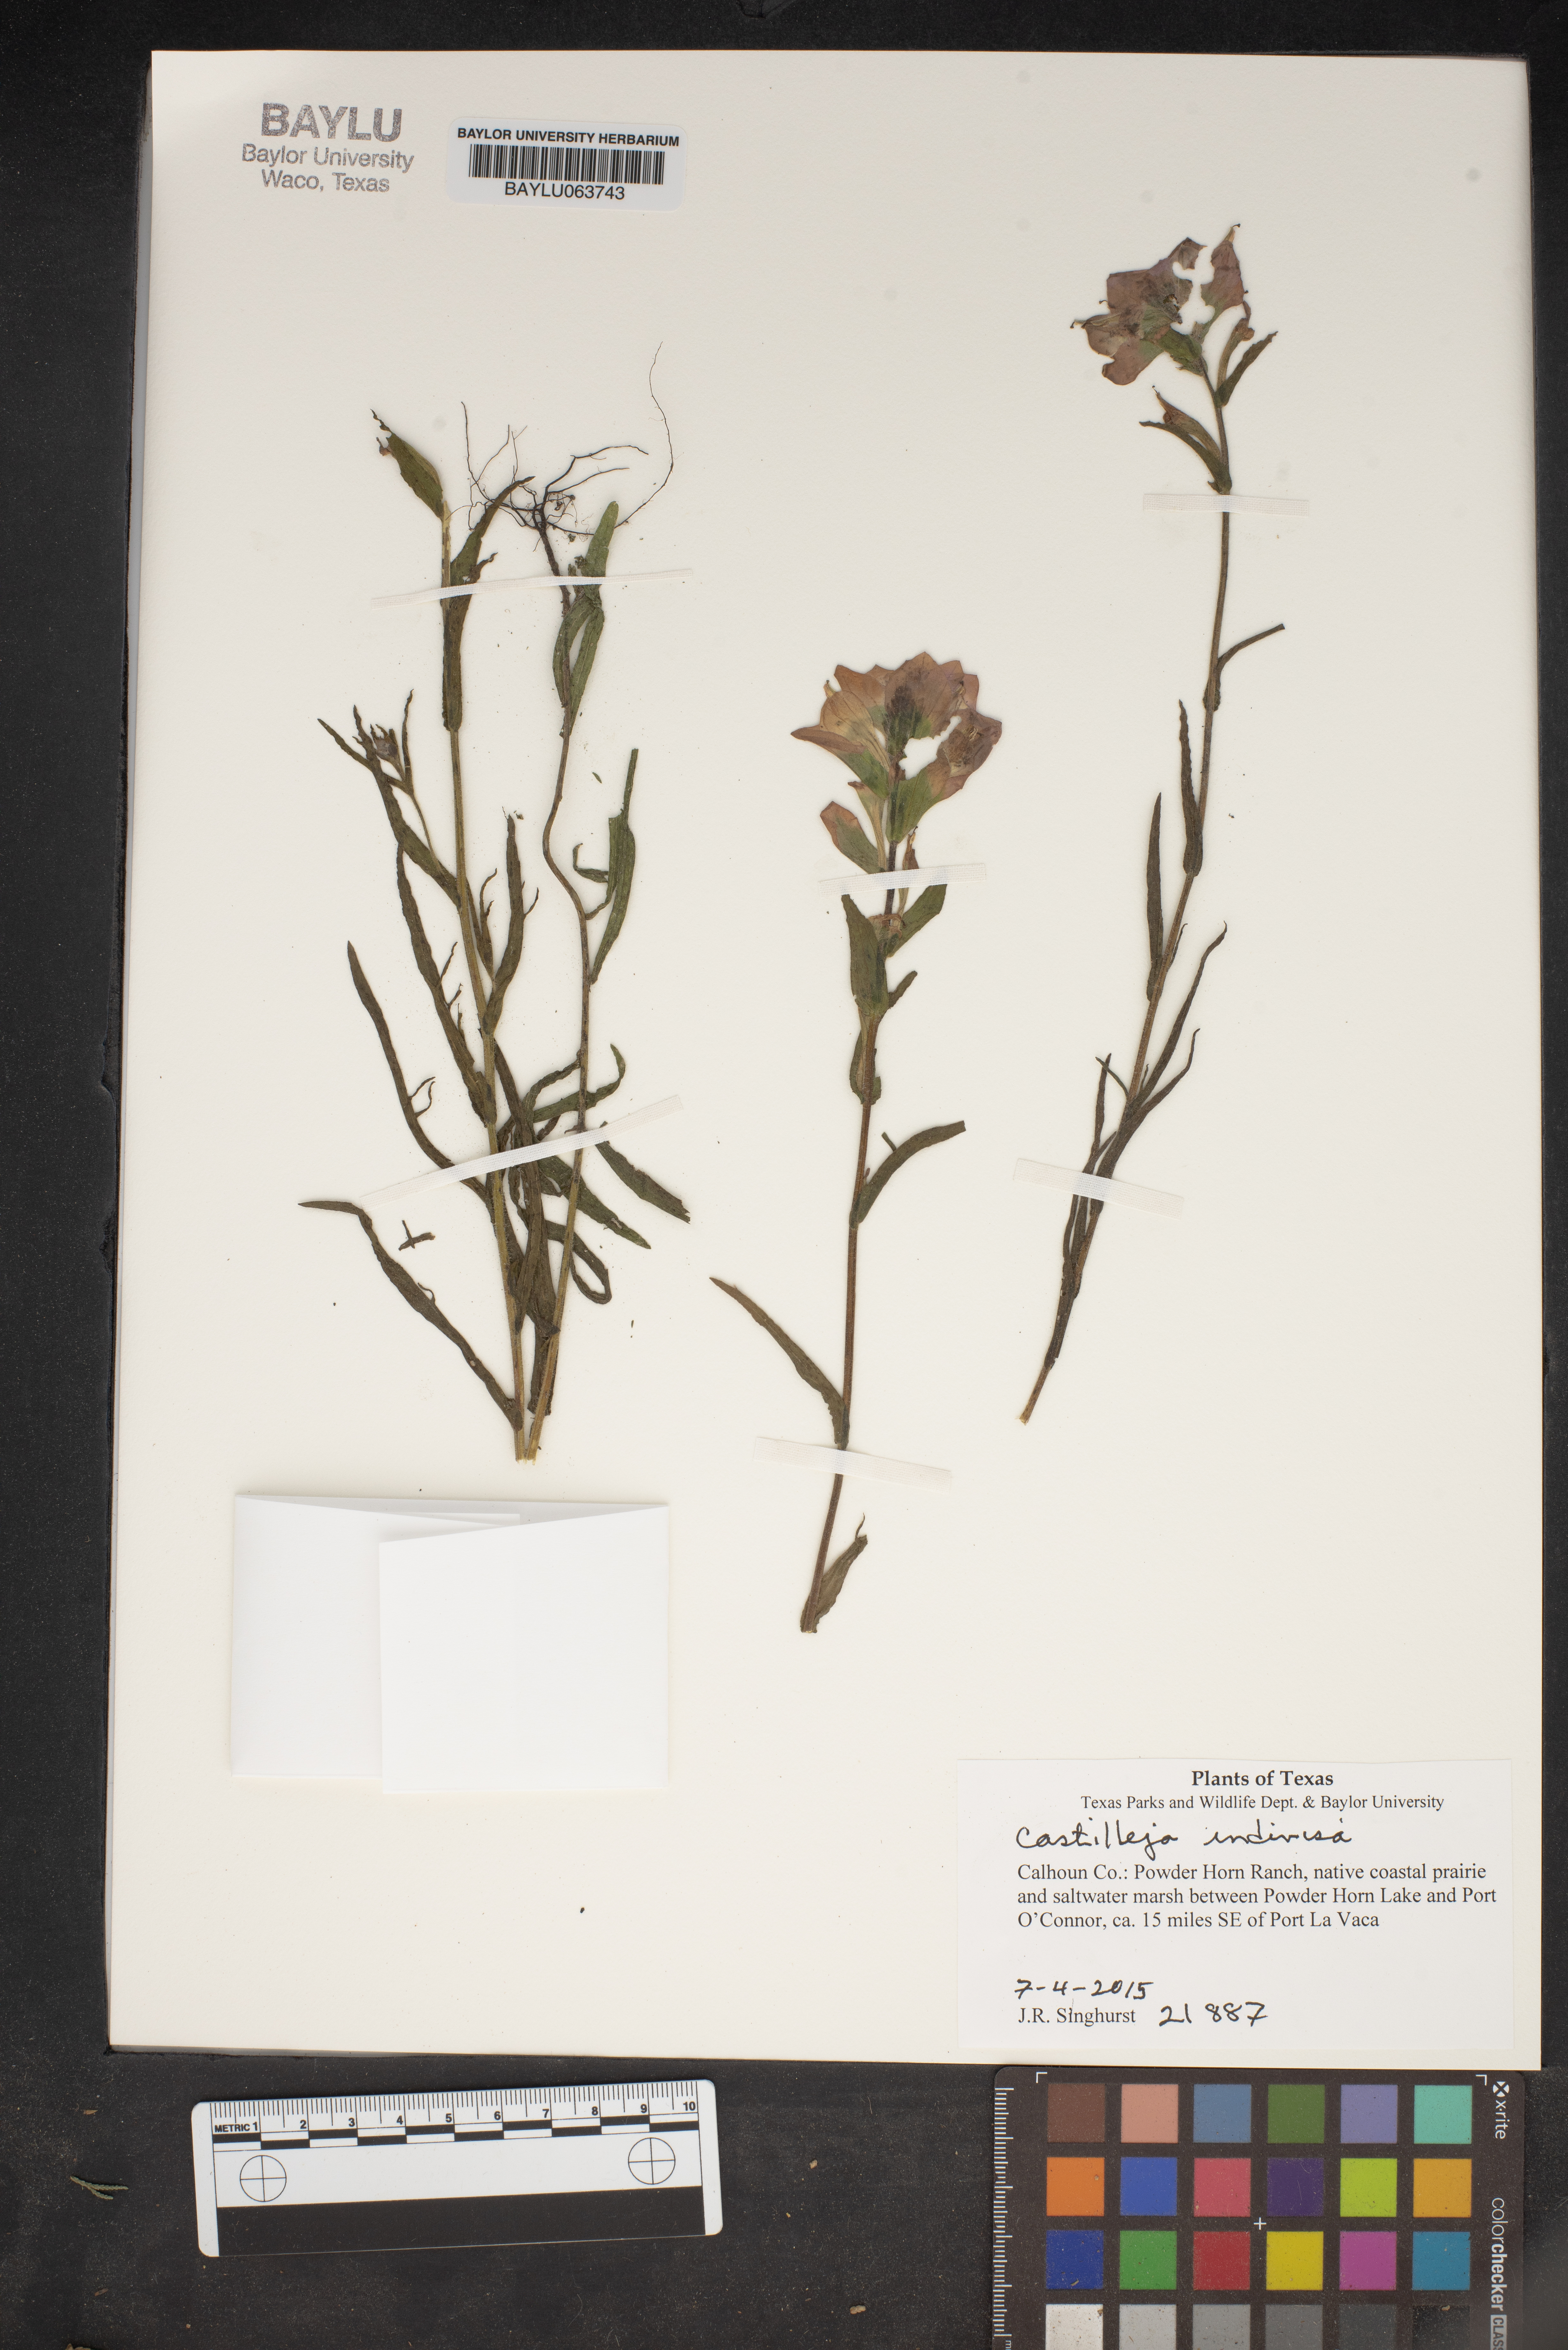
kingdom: Plantae
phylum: Tracheophyta
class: Magnoliopsida
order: Lamiales
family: Orobanchaceae
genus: Castilleja
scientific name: Castilleja indivisa
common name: Texas paintbrush
